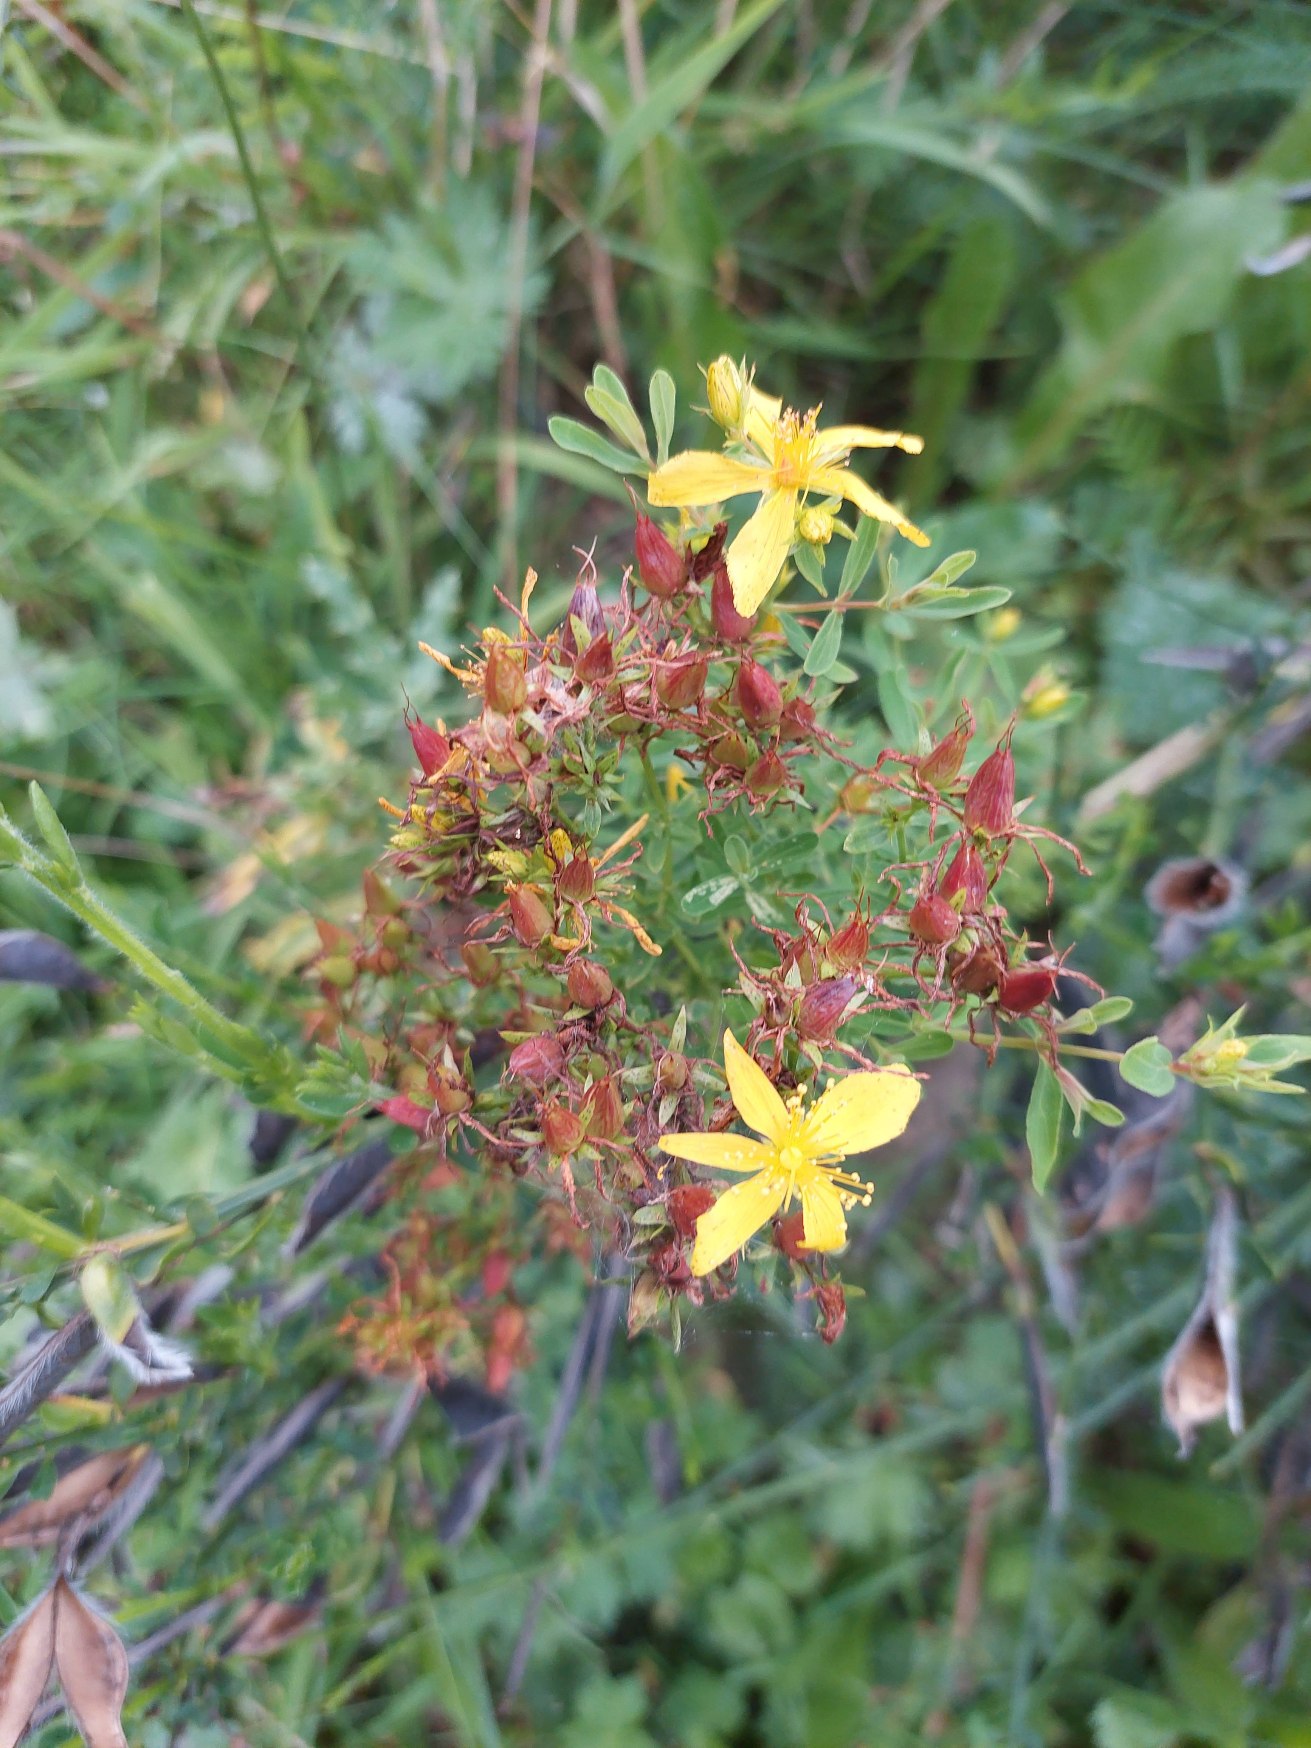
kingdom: Plantae
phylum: Tracheophyta
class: Magnoliopsida
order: Malpighiales
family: Hypericaceae
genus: Hypericum
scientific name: Hypericum perforatum
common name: Prikbladet perikon
